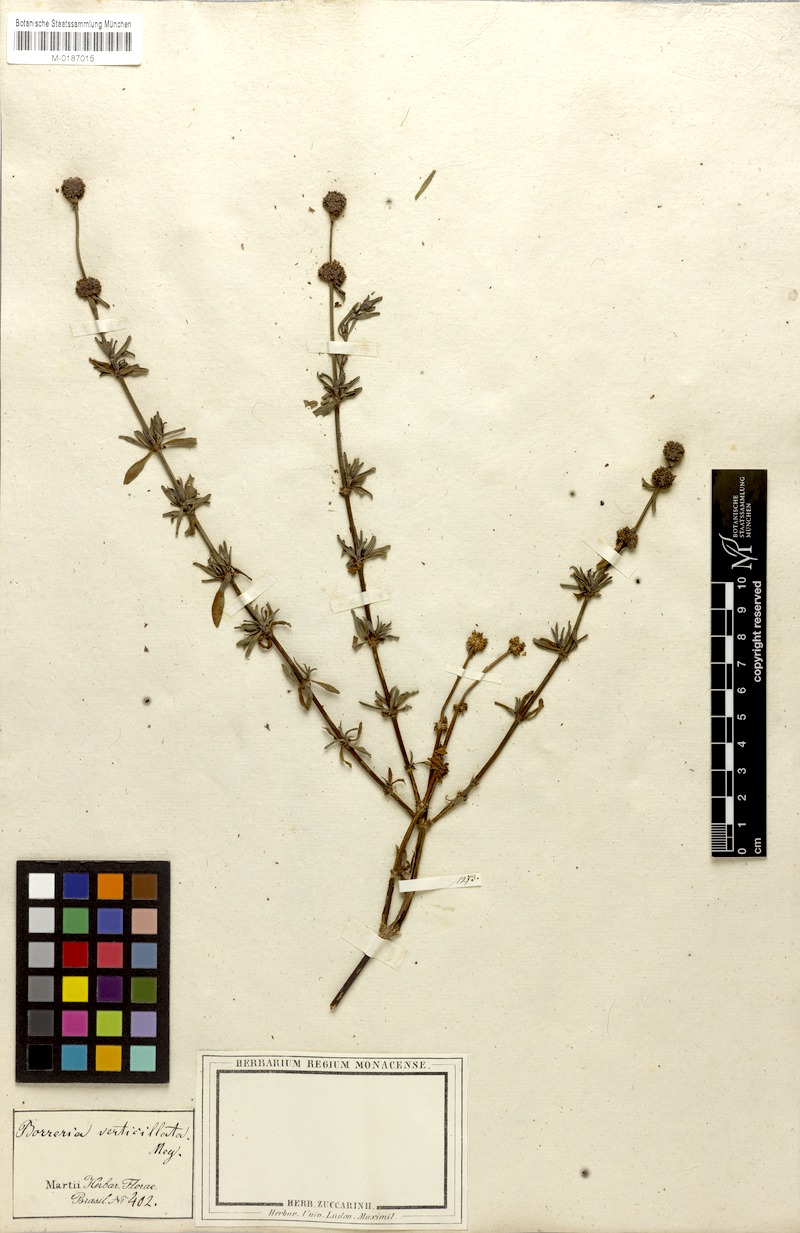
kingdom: Plantae
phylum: Tracheophyta
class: Magnoliopsida
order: Gentianales
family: Rubiaceae
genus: Spermacoce
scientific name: Spermacoce verticillata
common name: Shrubby false buttonweed
